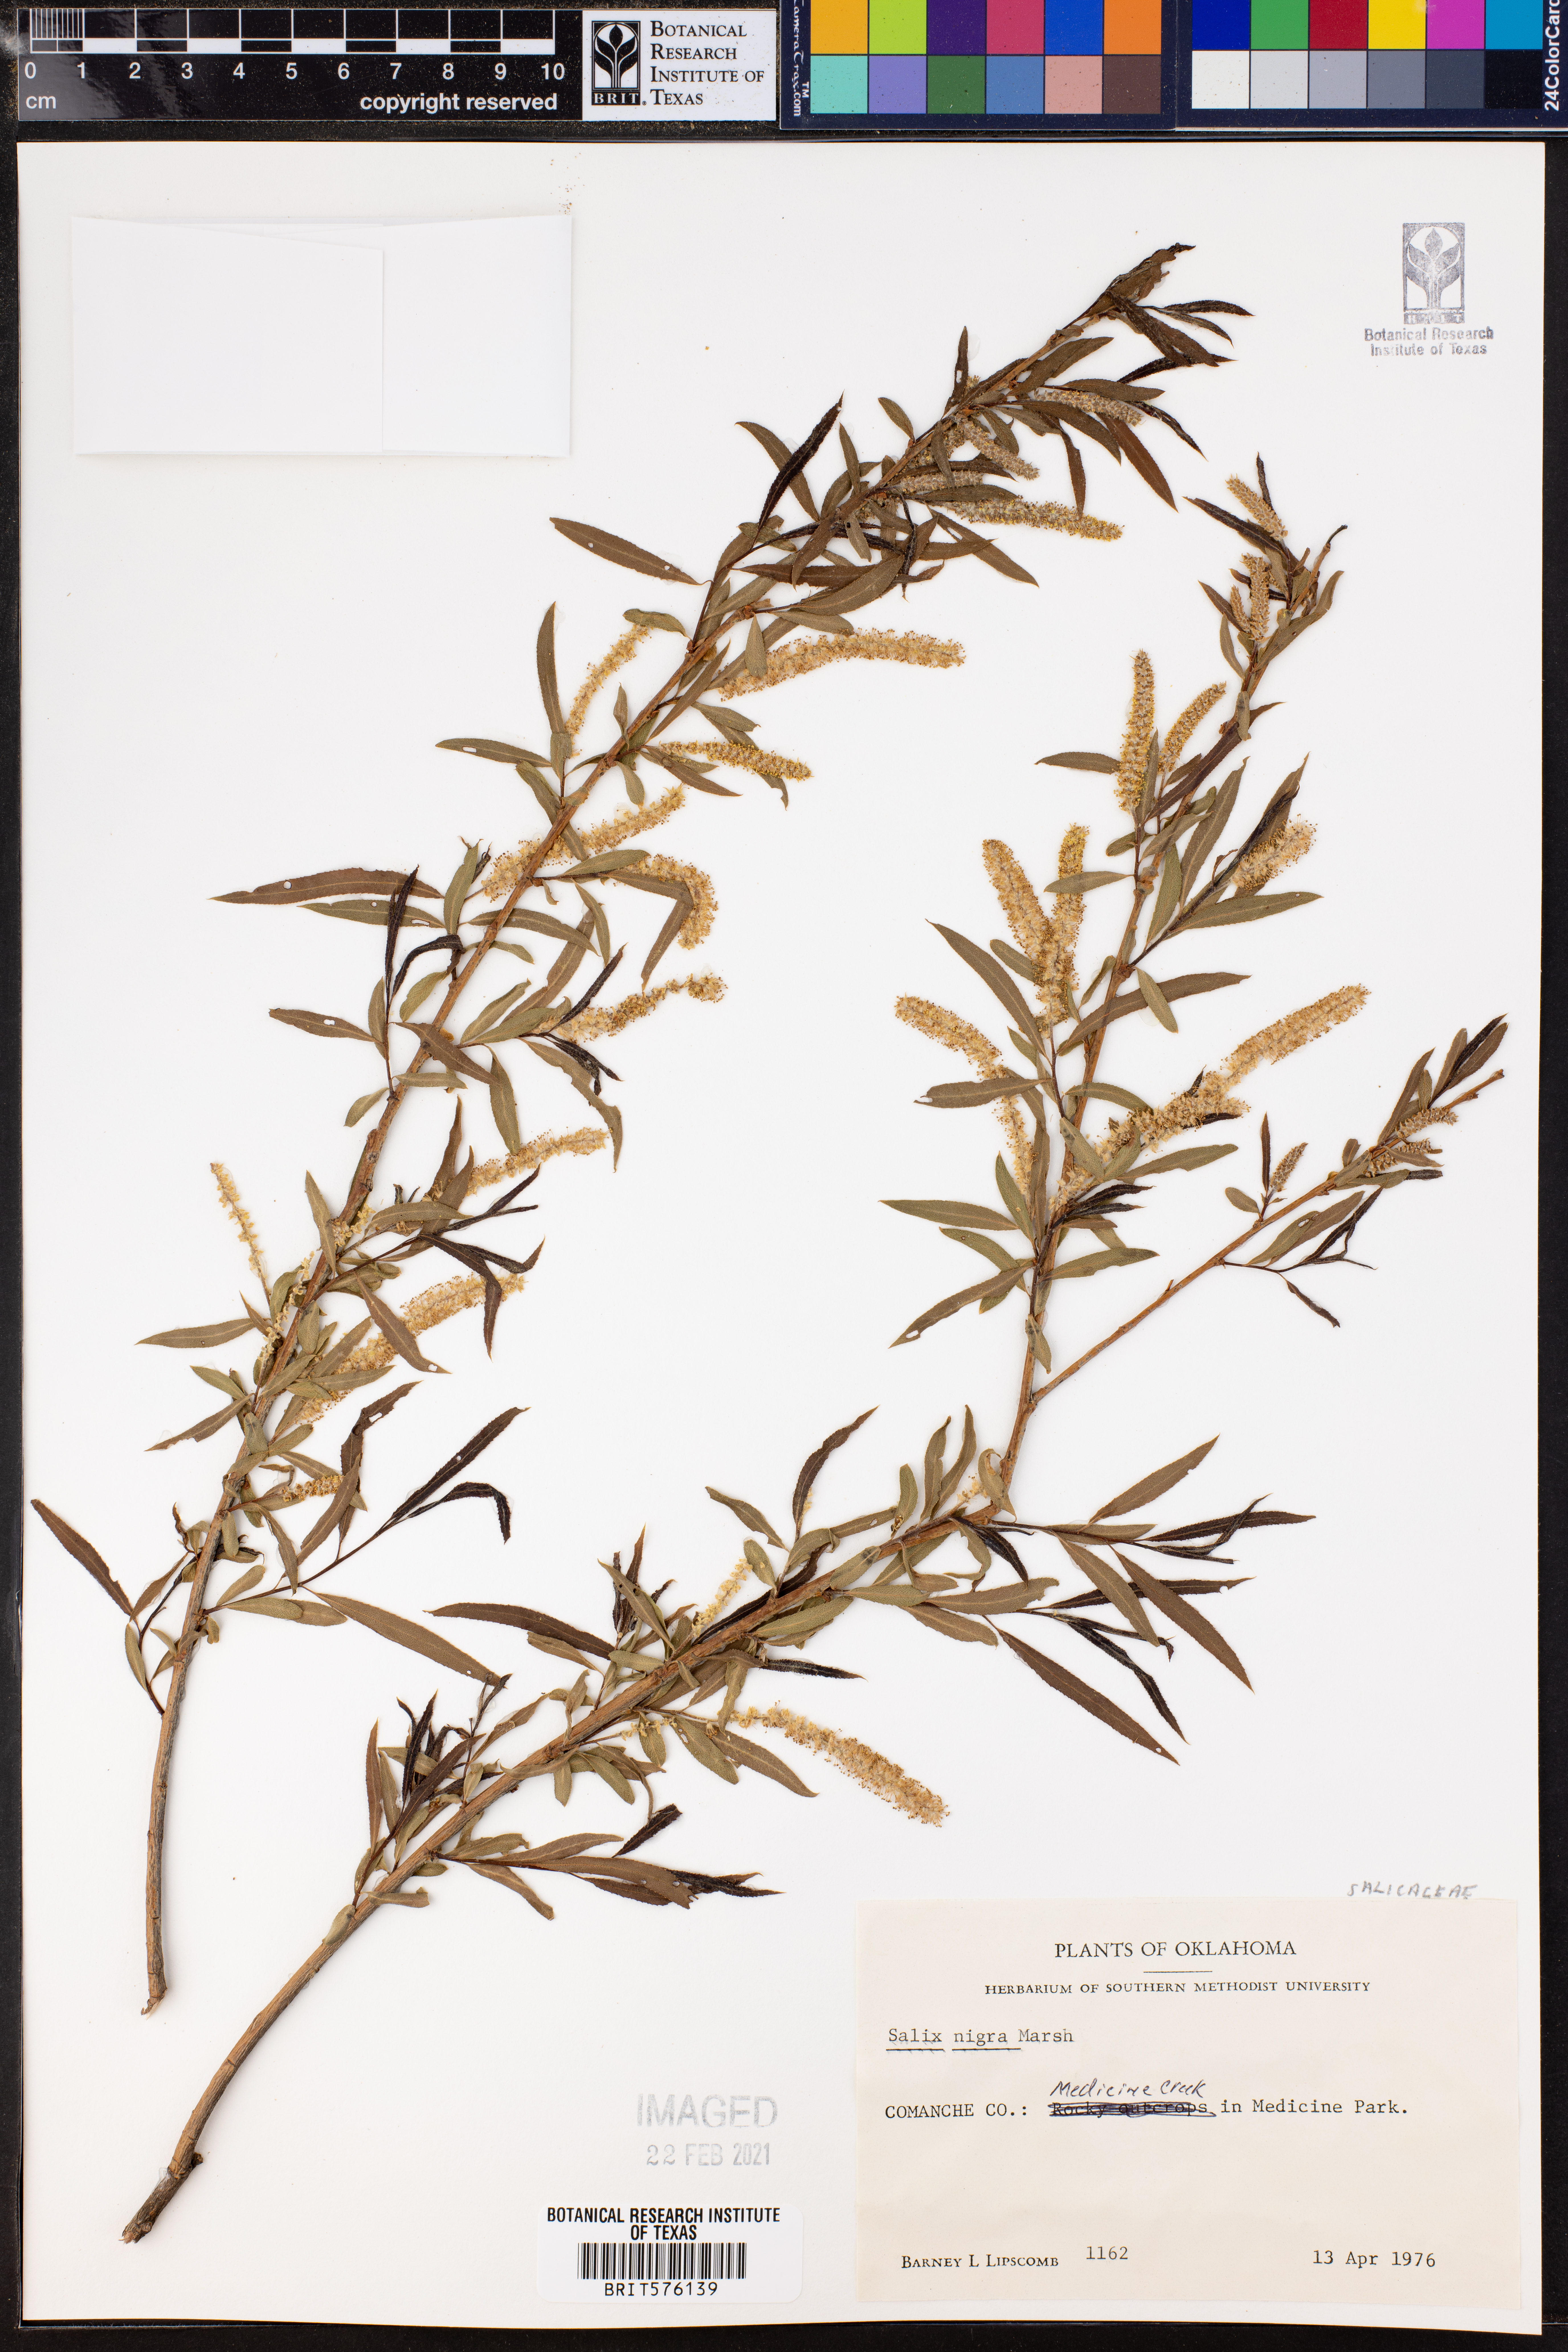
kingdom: Plantae
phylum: Tracheophyta
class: Magnoliopsida
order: Malpighiales
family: Salicaceae
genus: Salix
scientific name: Salix nigra
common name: Black willow
